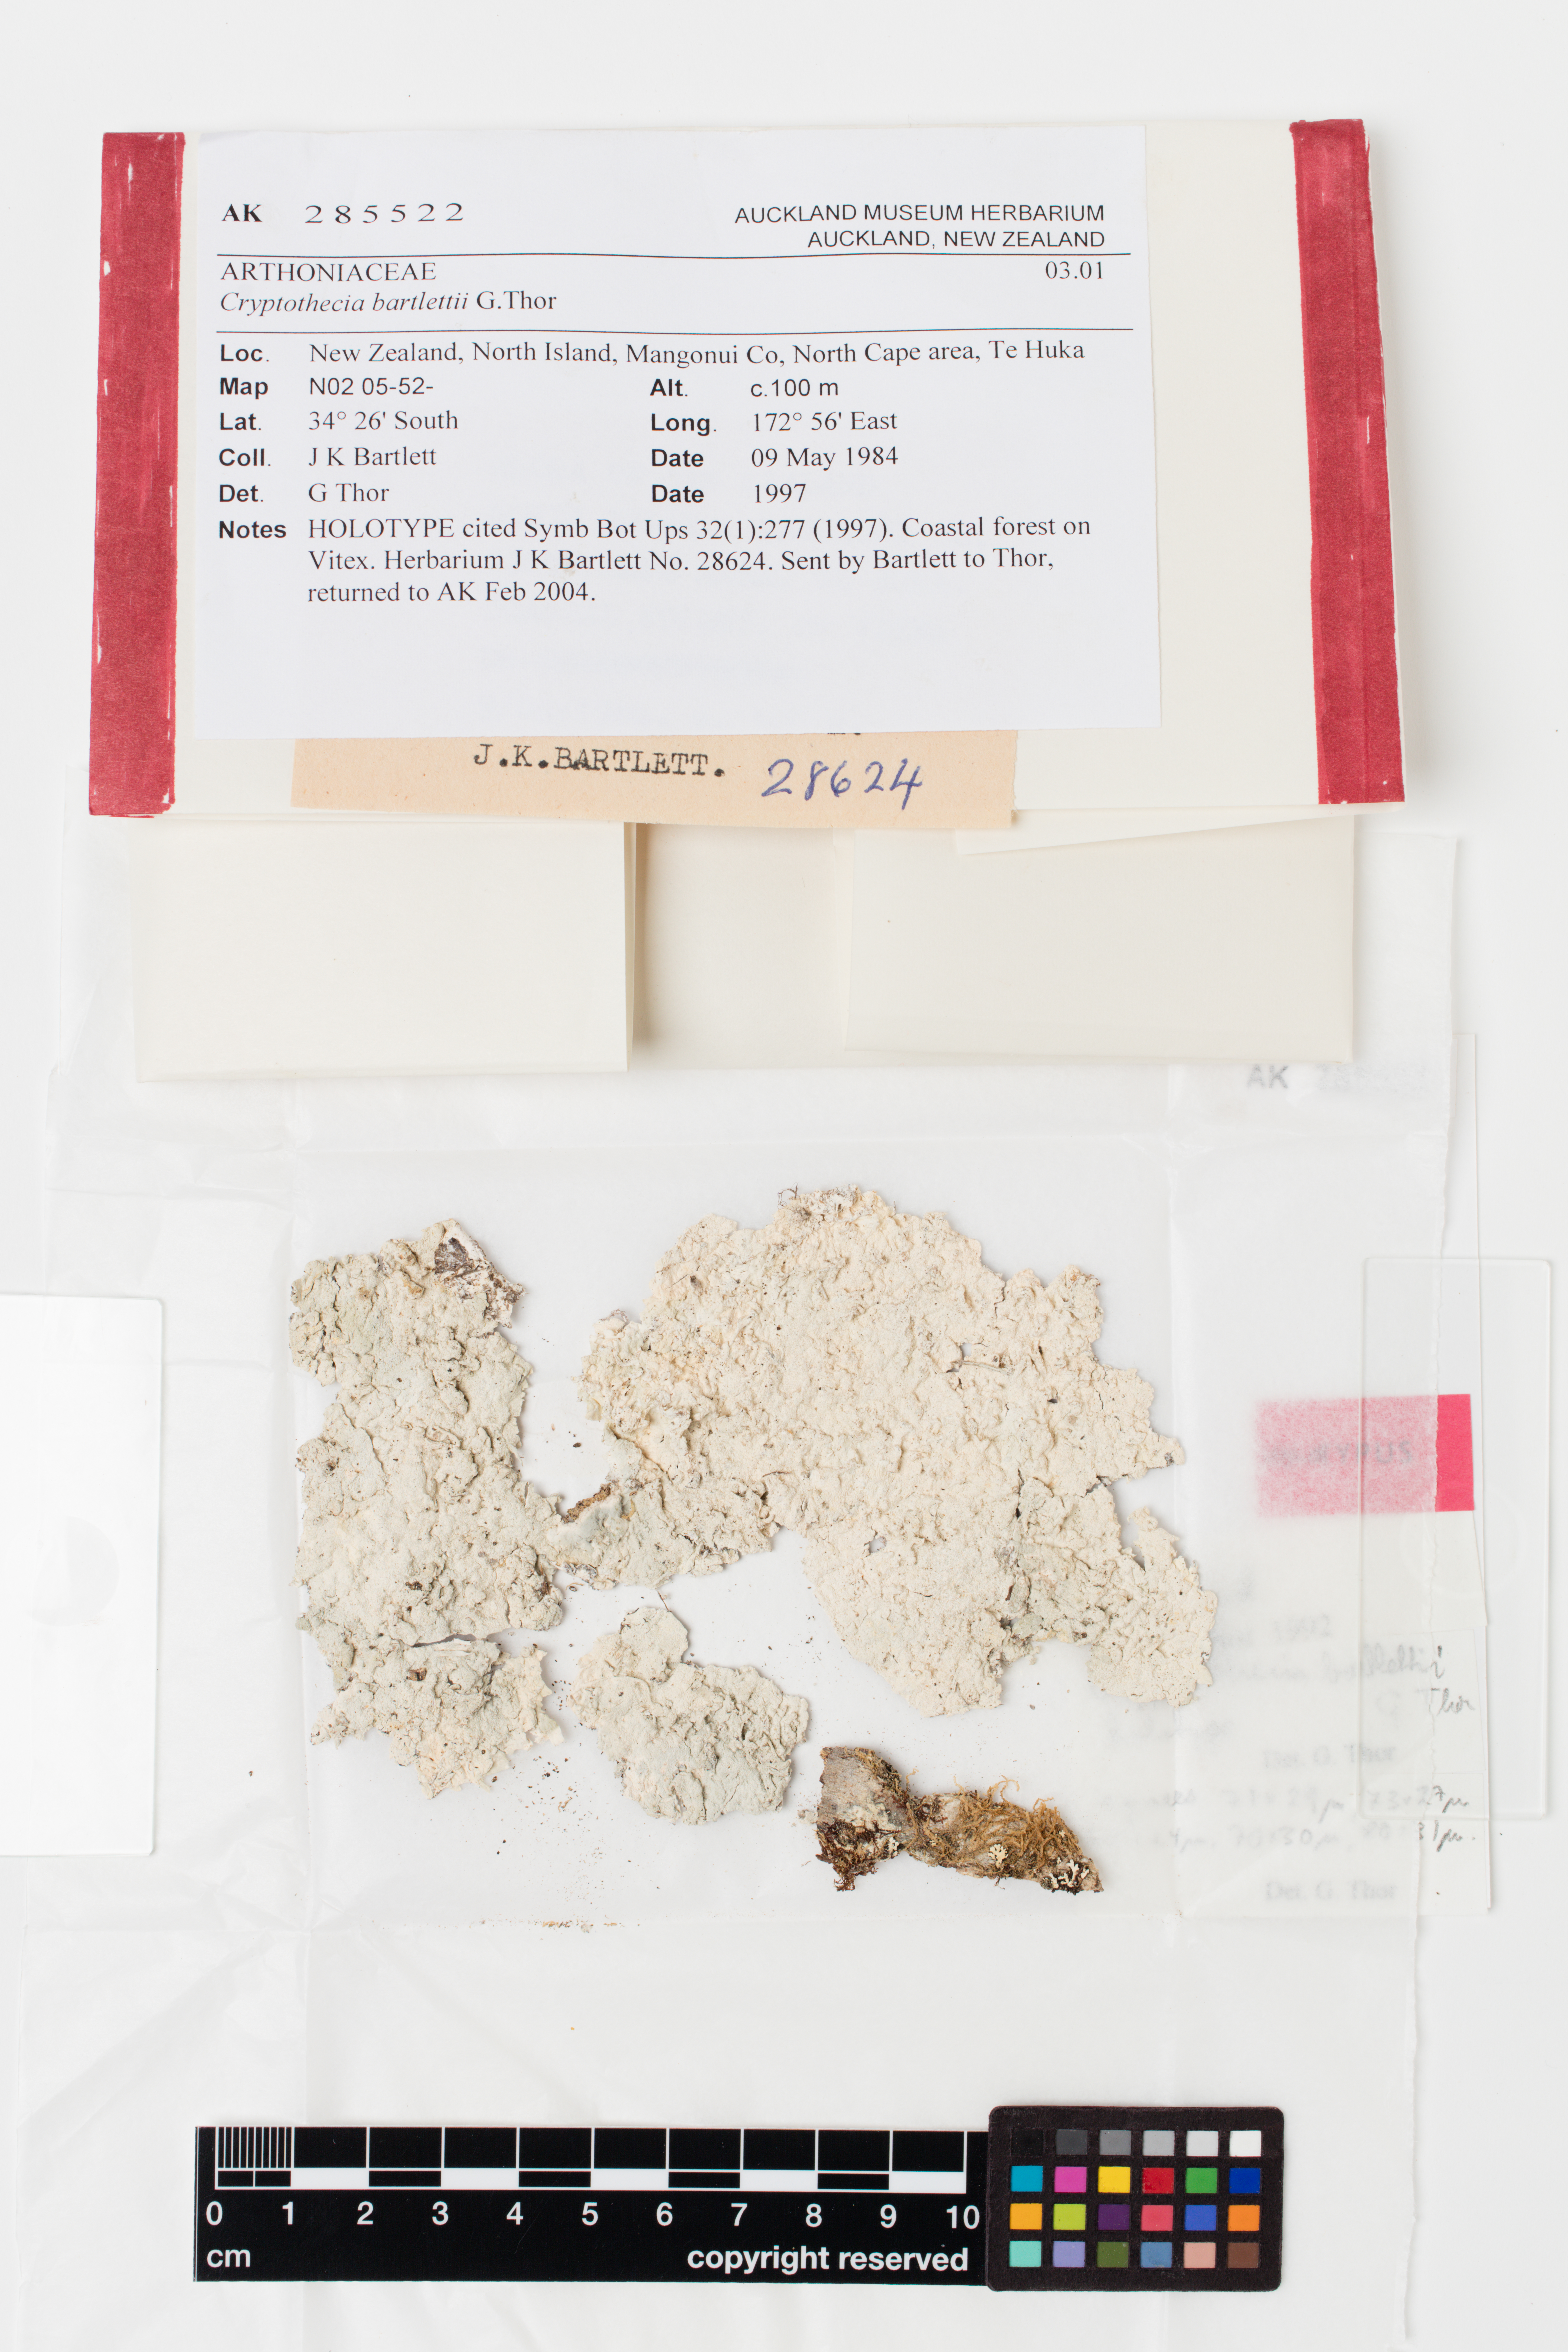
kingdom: Fungi
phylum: Ascomycota
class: Arthoniomycetes
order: Arthoniales
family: Arthoniaceae
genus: Cryptothecia
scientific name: Cryptothecia
